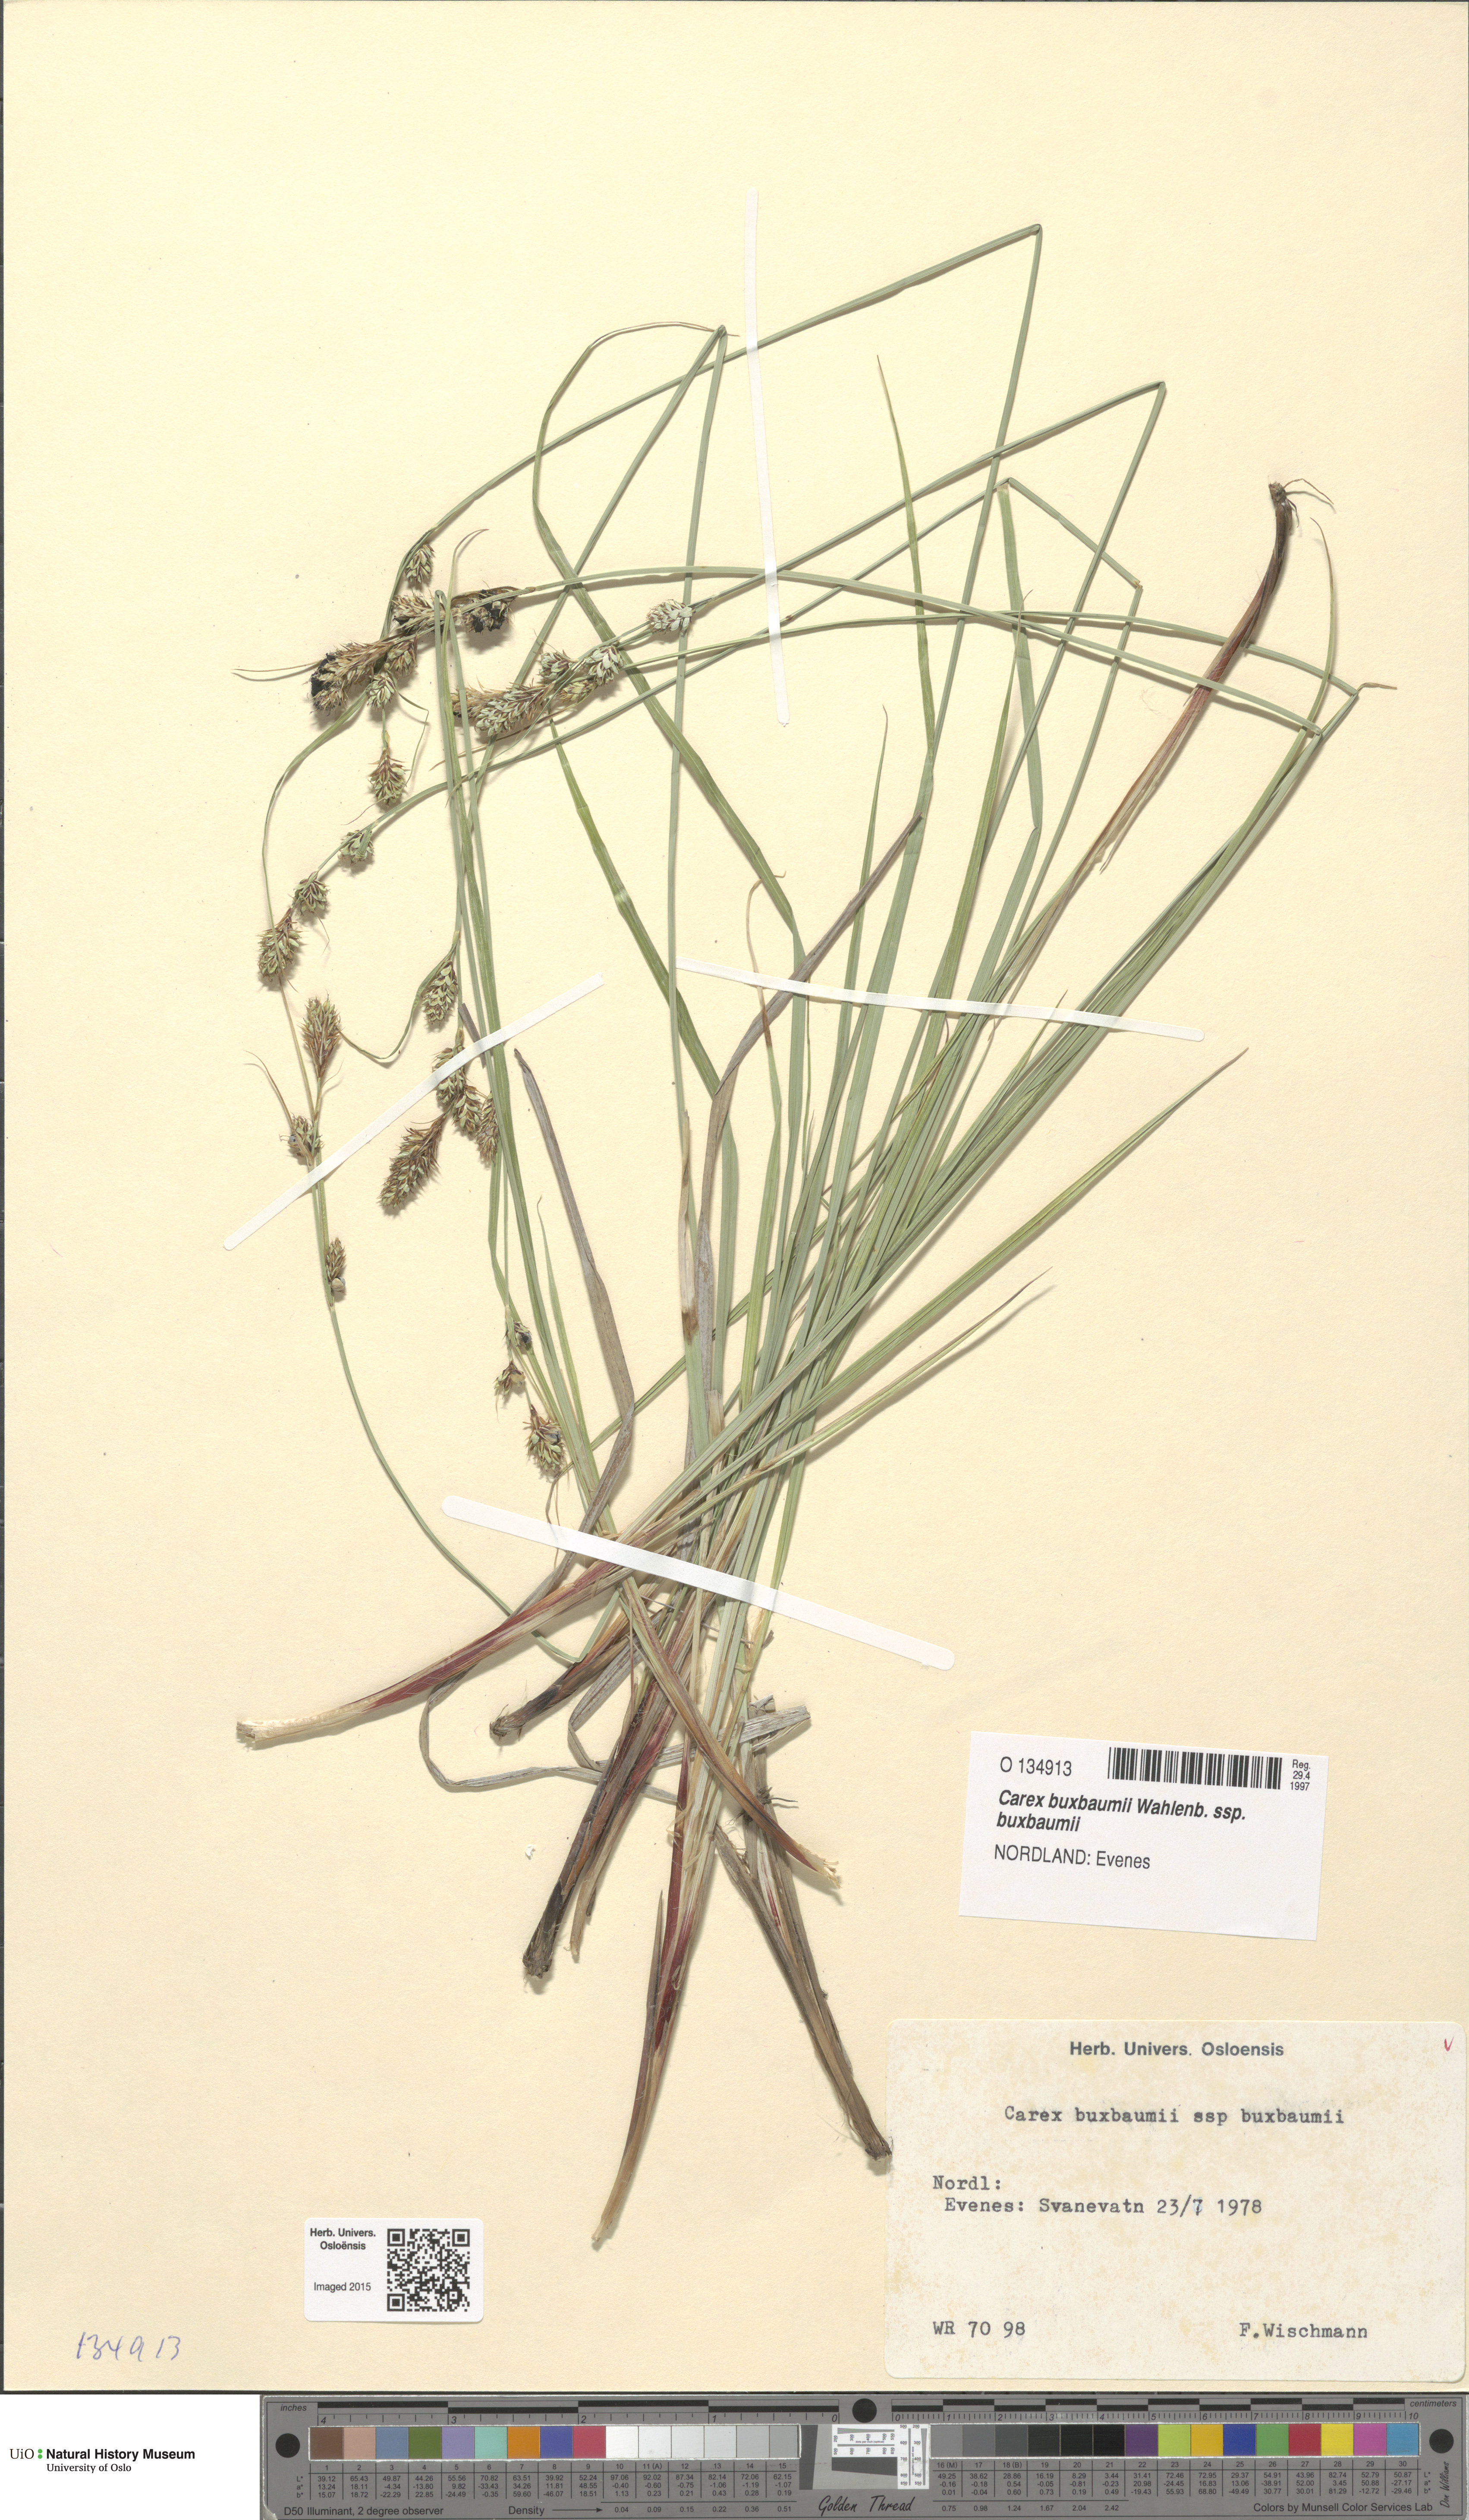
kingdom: Plantae
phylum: Tracheophyta
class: Liliopsida
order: Poales
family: Cyperaceae
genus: Carex
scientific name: Carex buxbaumii
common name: Club sedge
